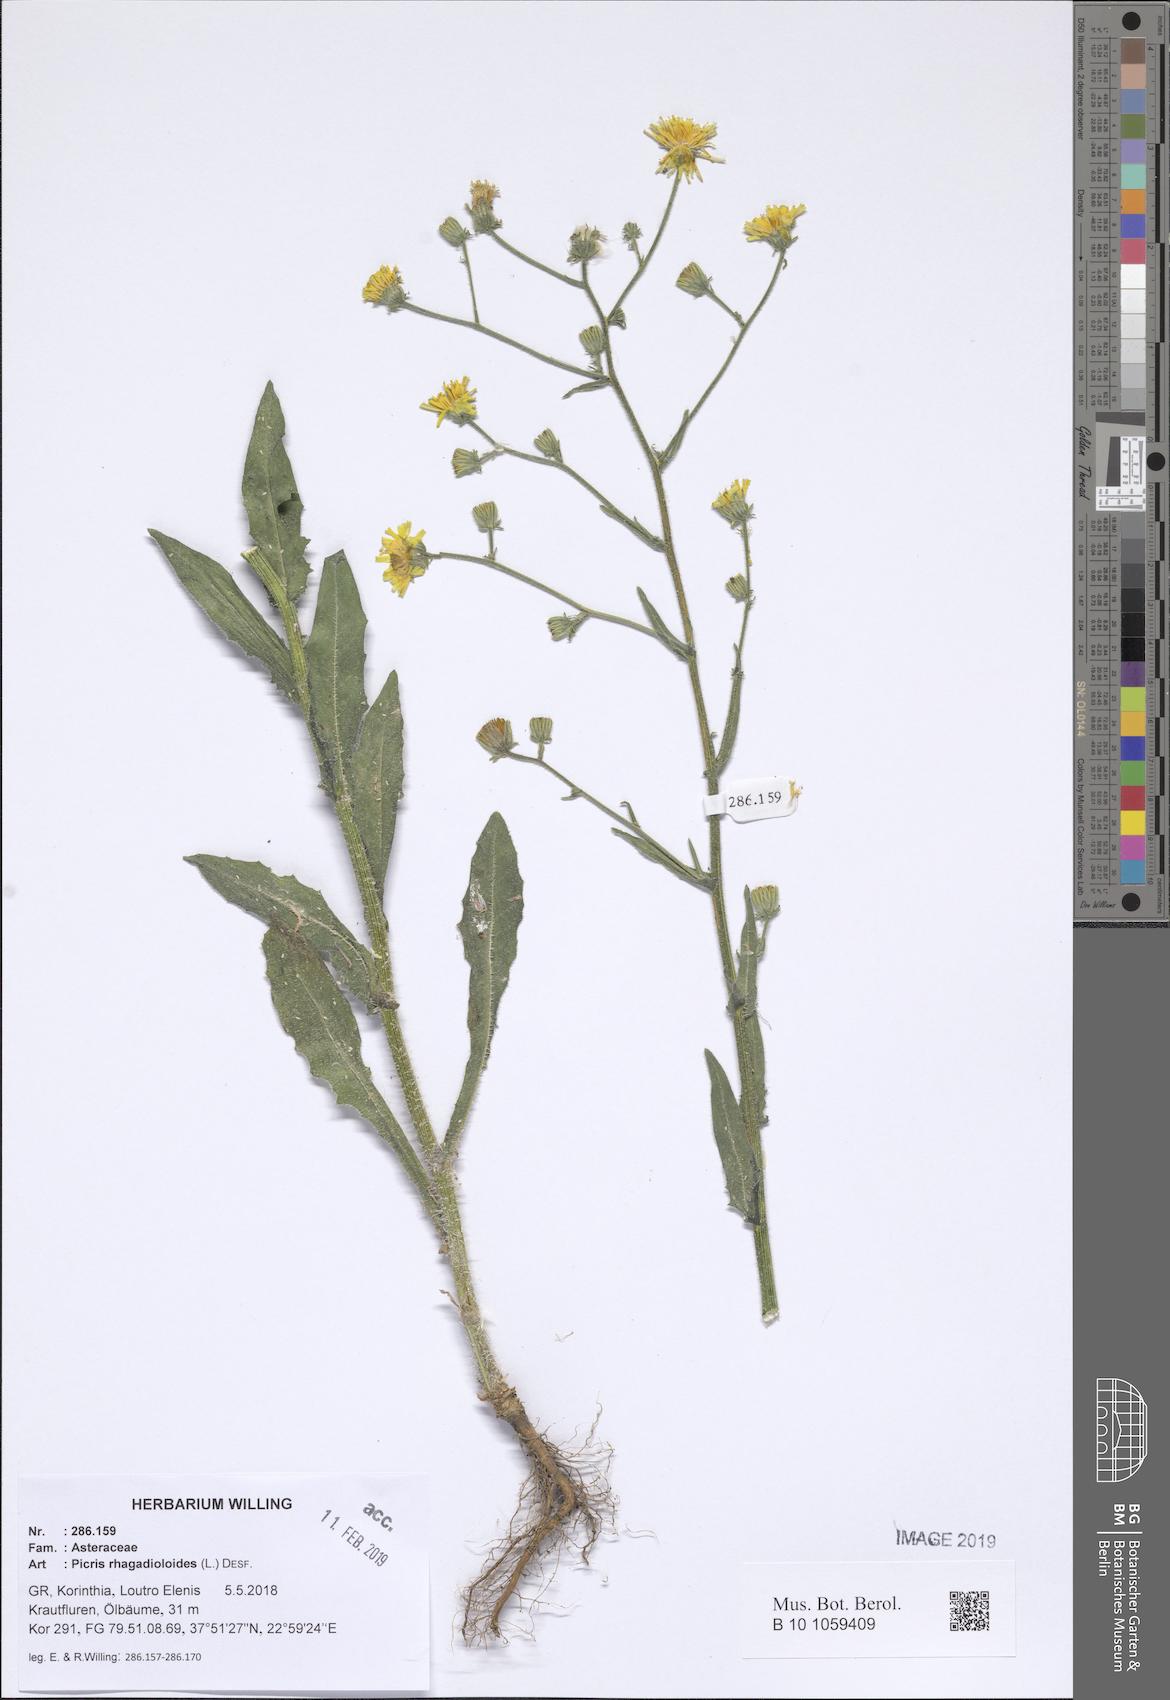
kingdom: Plantae
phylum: Tracheophyta
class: Magnoliopsida
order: Asterales
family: Asteraceae
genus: Picris
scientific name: Picris rhagadioloides
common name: Oxtongue
